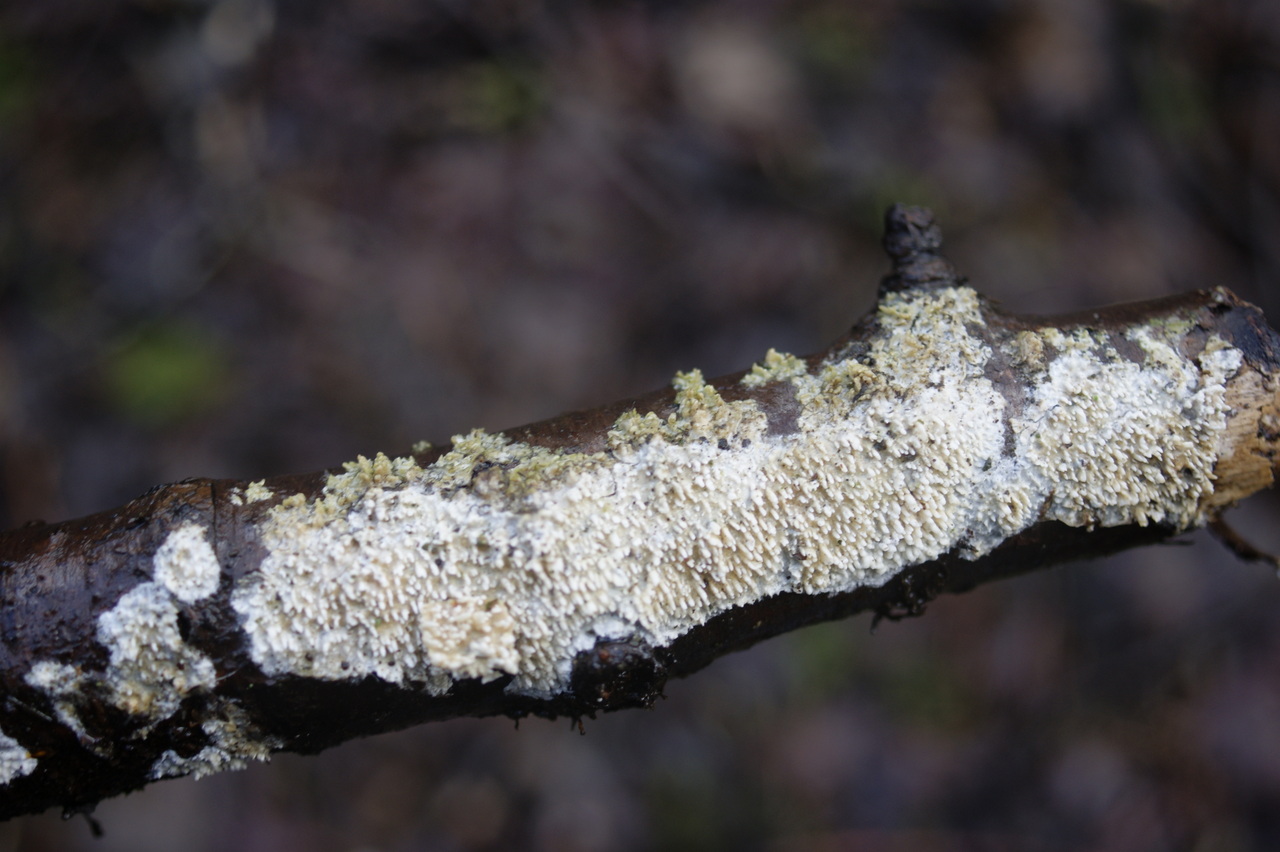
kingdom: Fungi
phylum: Basidiomycota
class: Agaricomycetes
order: Hymenochaetales
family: Schizoporaceae
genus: Xylodon
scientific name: Xylodon radula
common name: grovtandet kalkskind
